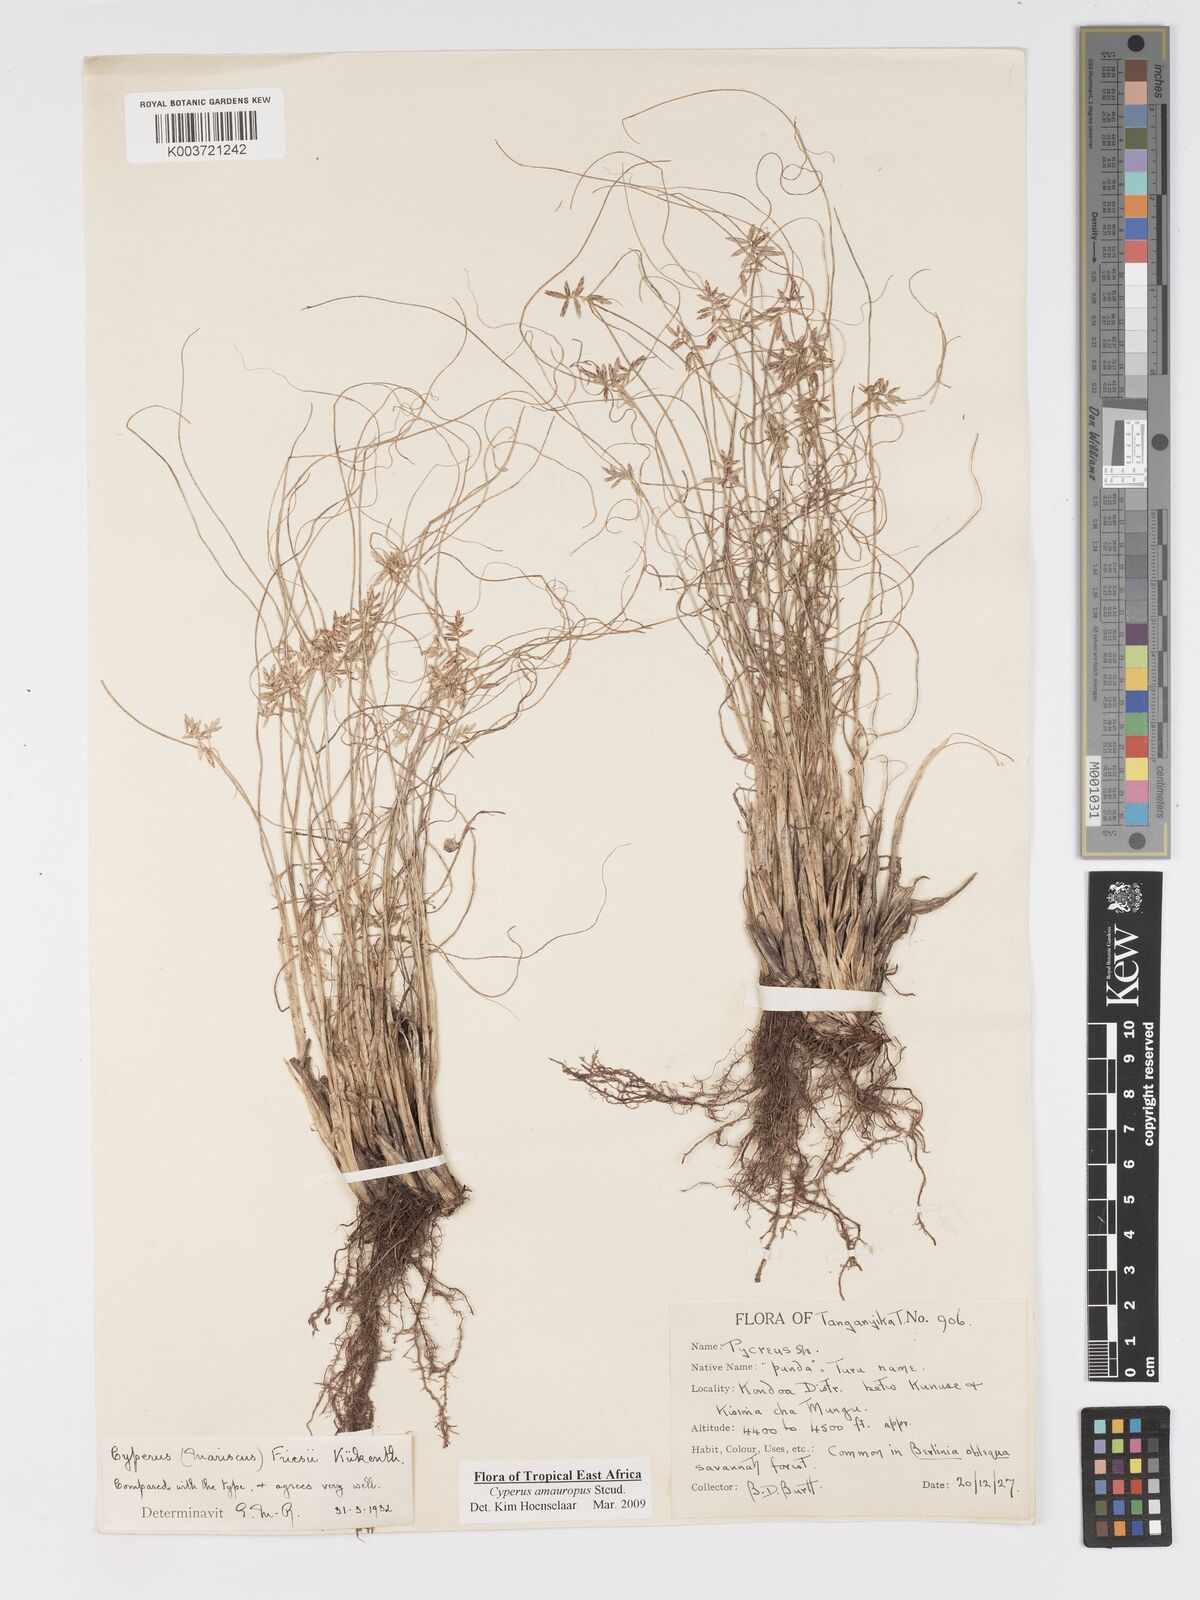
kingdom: Plantae
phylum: Tracheophyta
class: Liliopsida
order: Poales
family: Cyperaceae
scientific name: Cyperaceae
